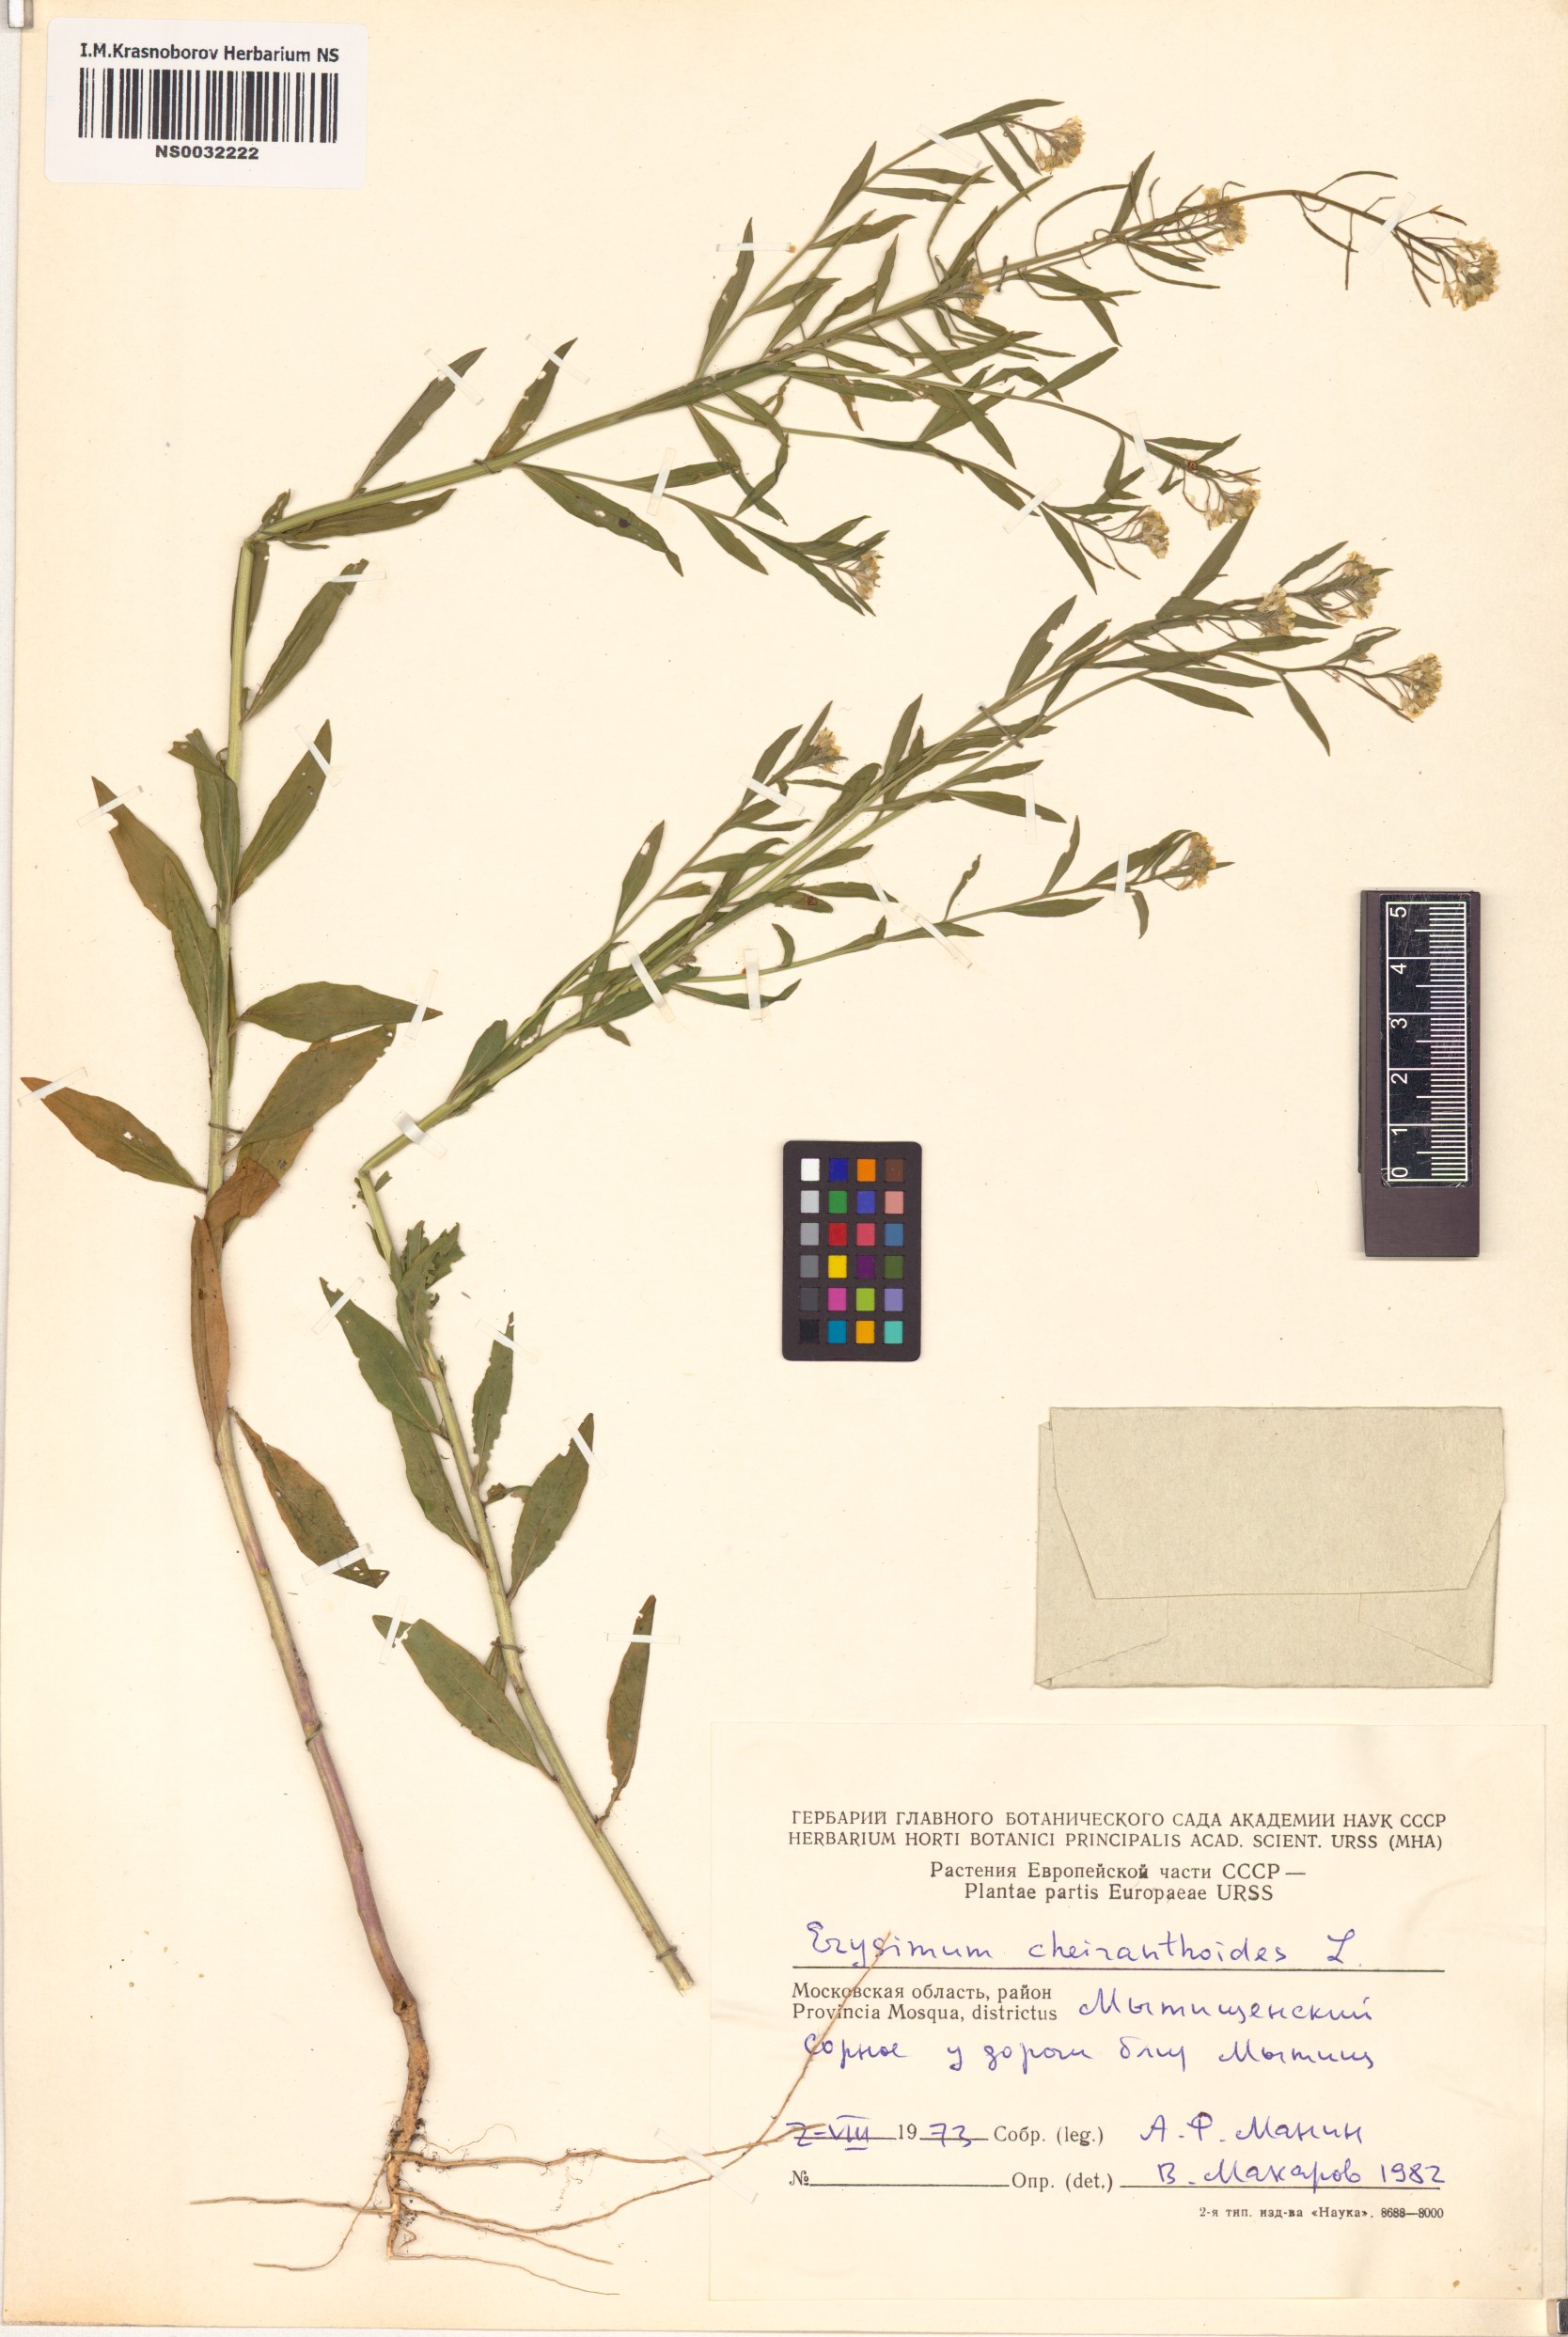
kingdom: Plantae
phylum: Tracheophyta
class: Magnoliopsida
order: Brassicales
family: Brassicaceae
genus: Erysimum
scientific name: Erysimum cheiranthoides
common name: Treacle mustard
